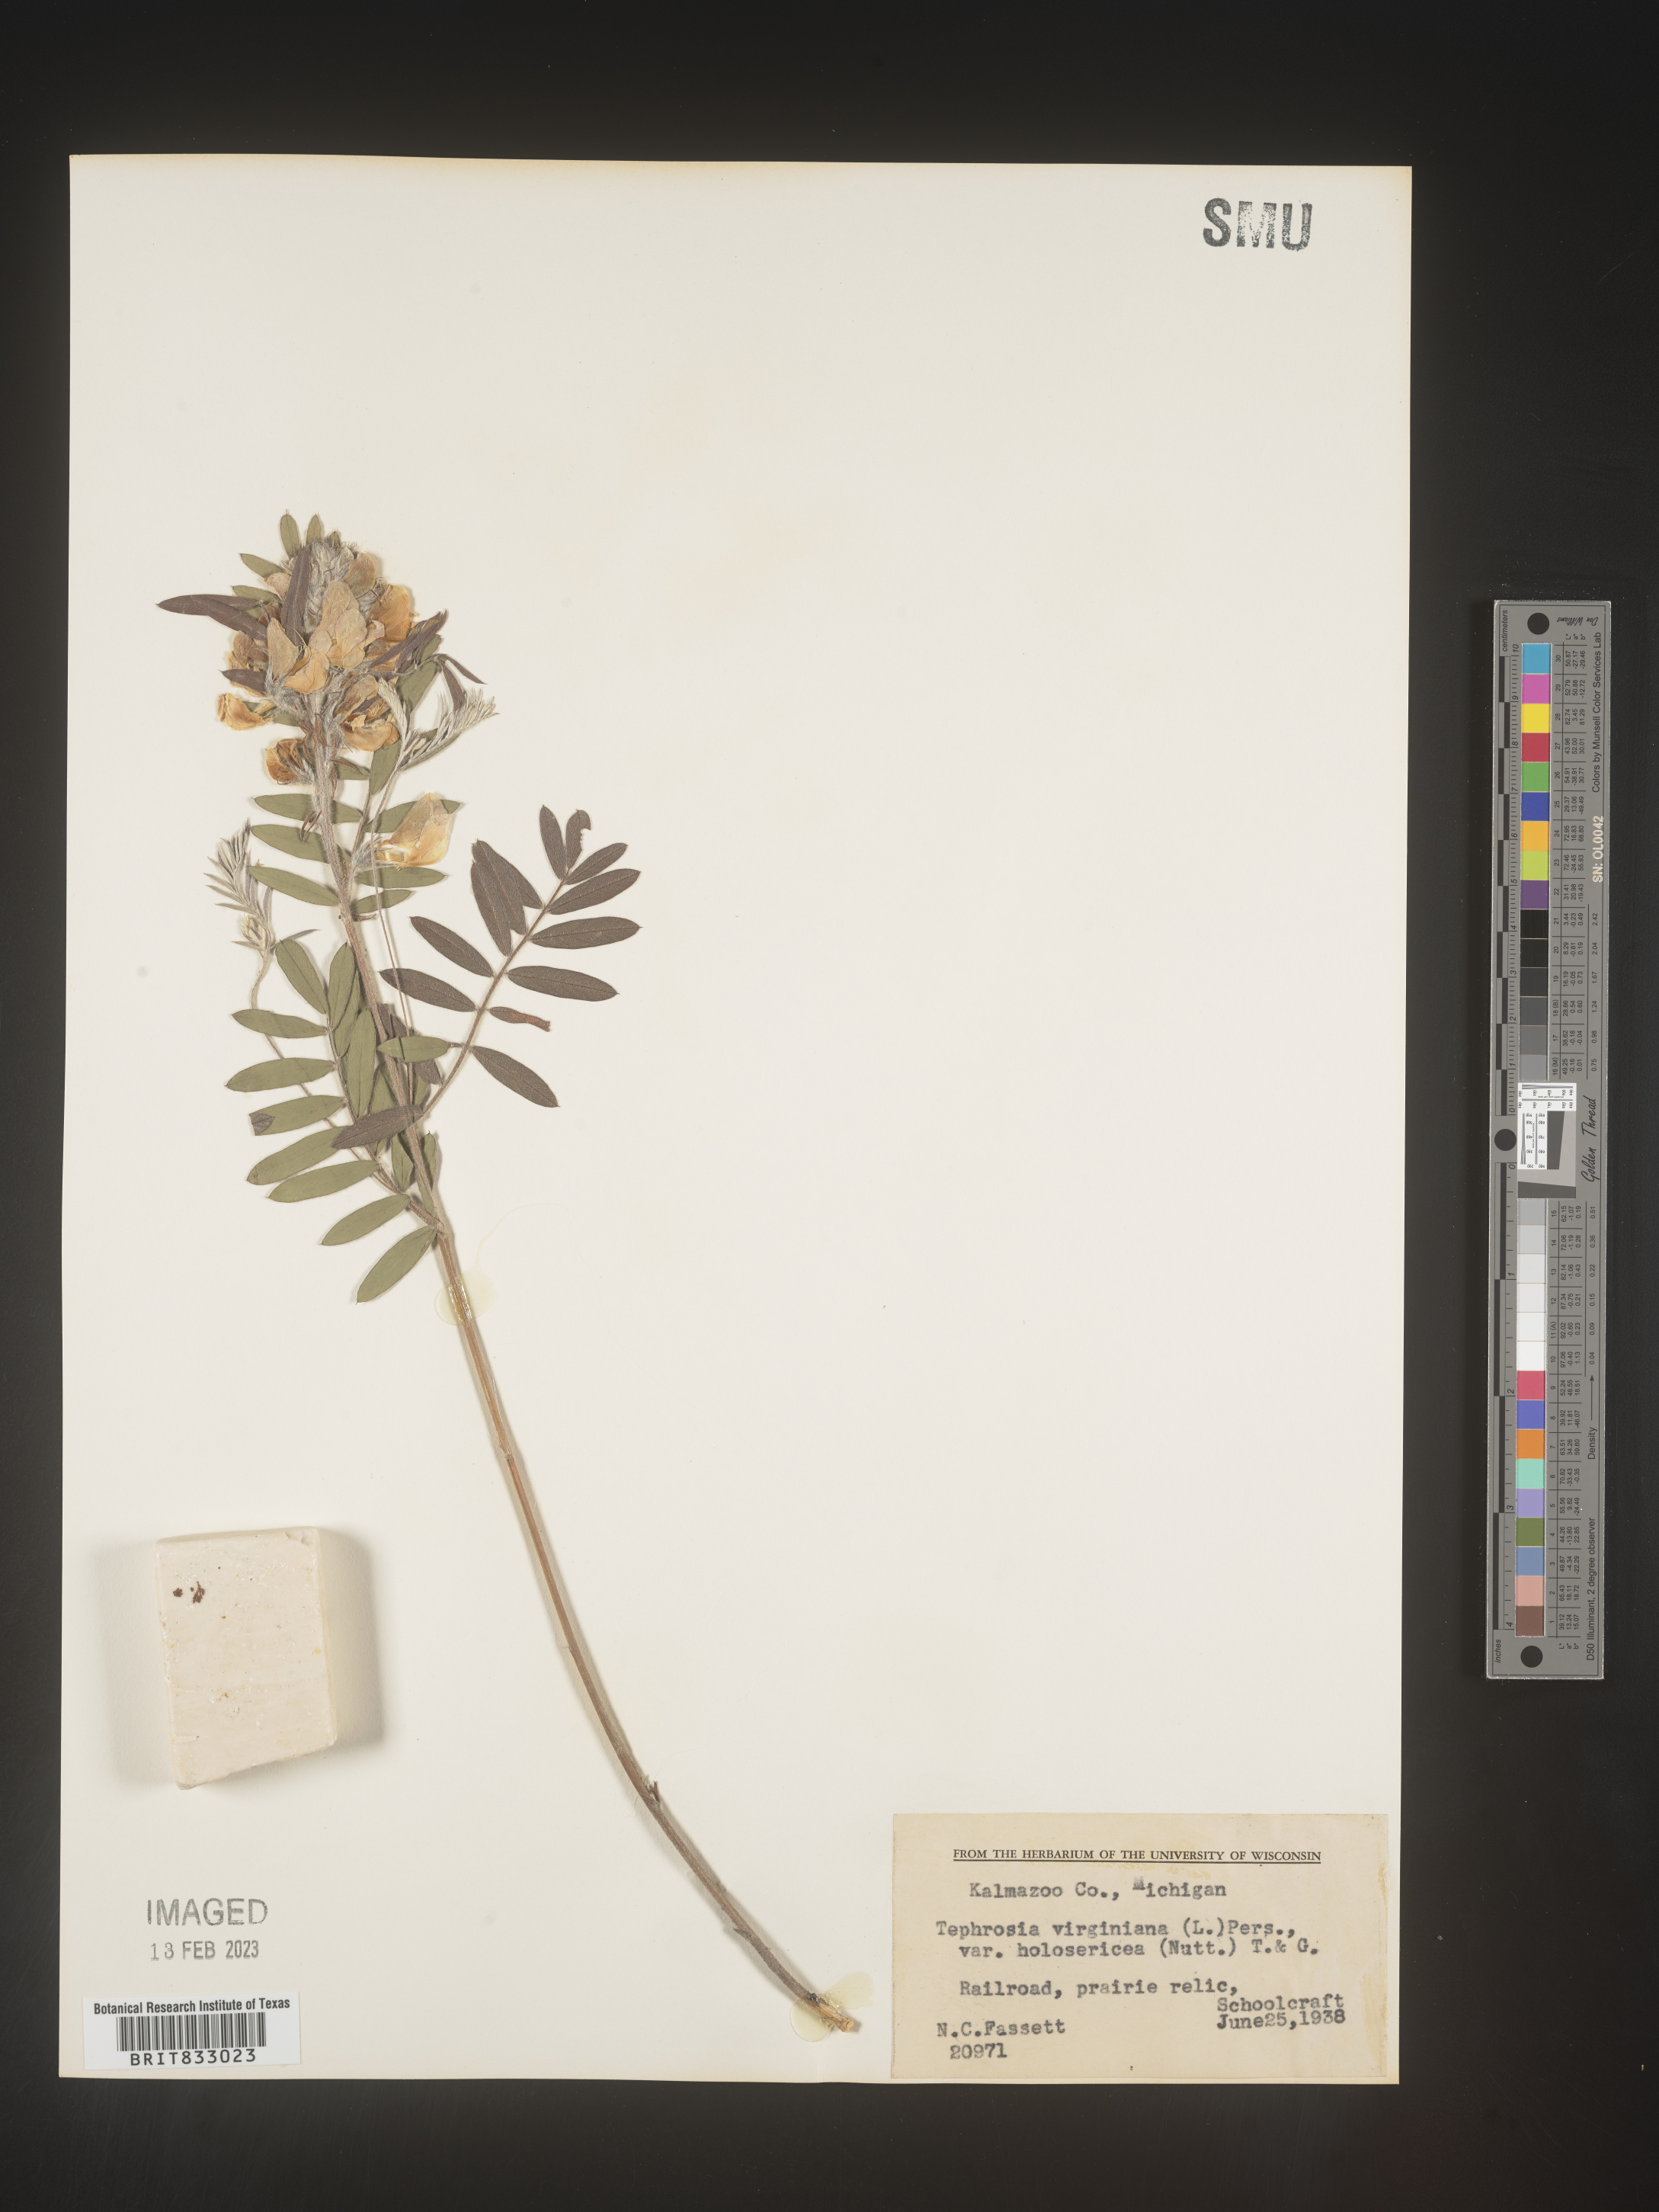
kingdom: Plantae
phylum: Tracheophyta
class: Magnoliopsida
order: Fabales
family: Fabaceae
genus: Tephrosia
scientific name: Tephrosia virginiana
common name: Rabbit-pea
